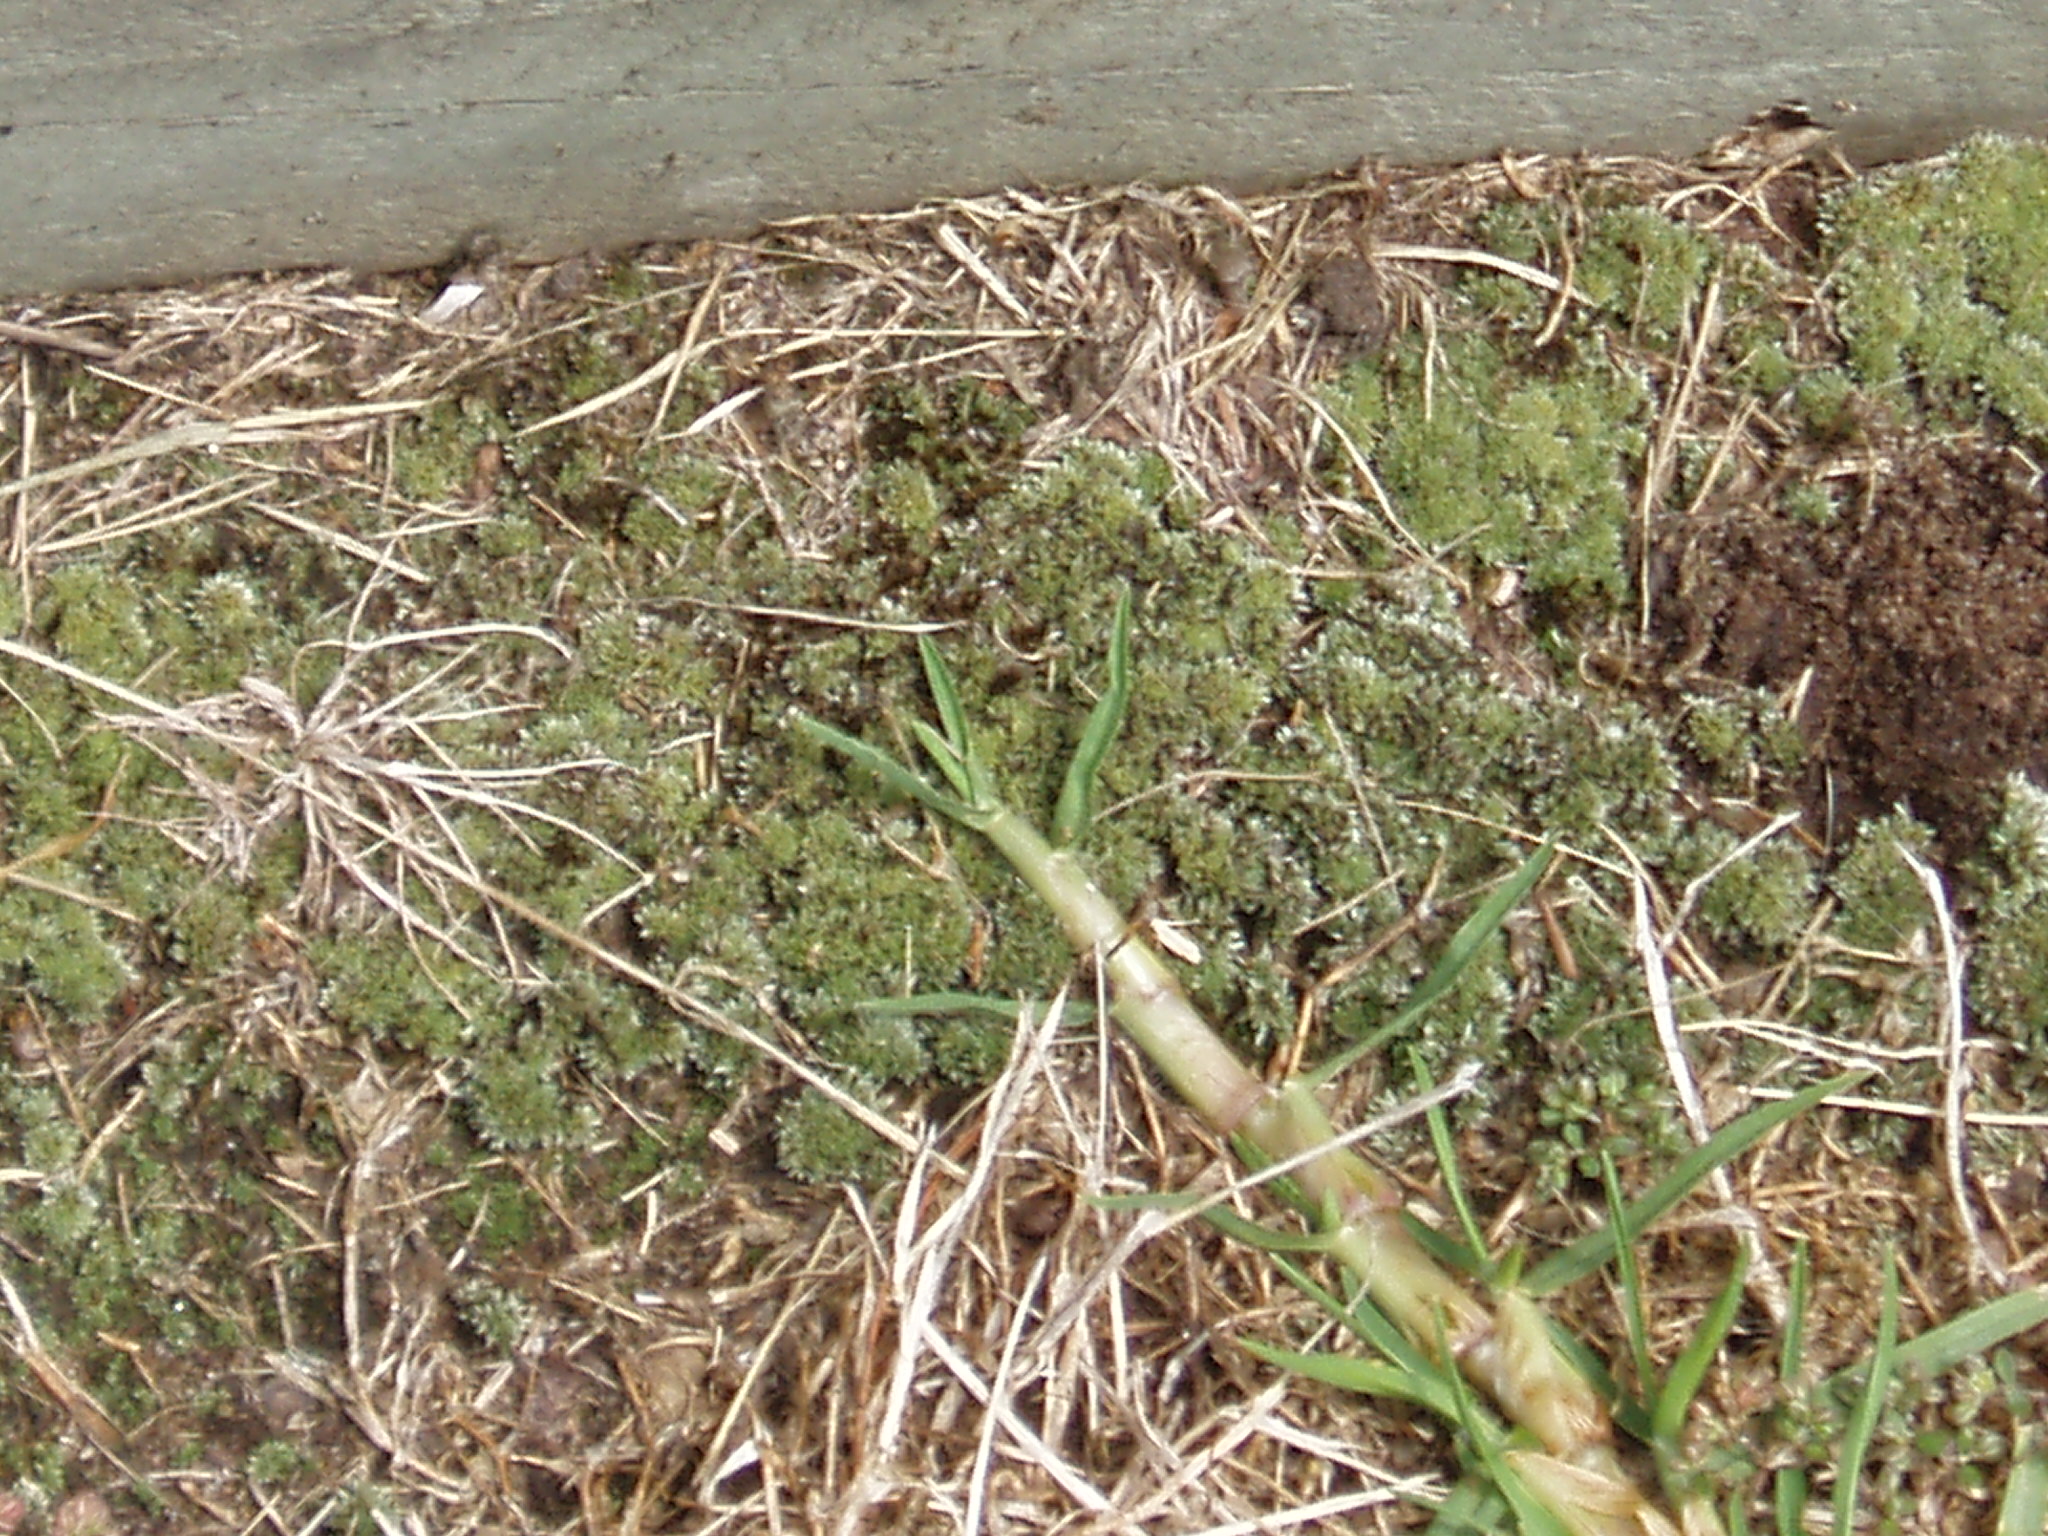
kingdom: Plantae
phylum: Bryophyta
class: Bryopsida
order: Bryales
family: Bryaceae
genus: Bryum
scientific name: Bryum argenteum
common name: Silver-moss
